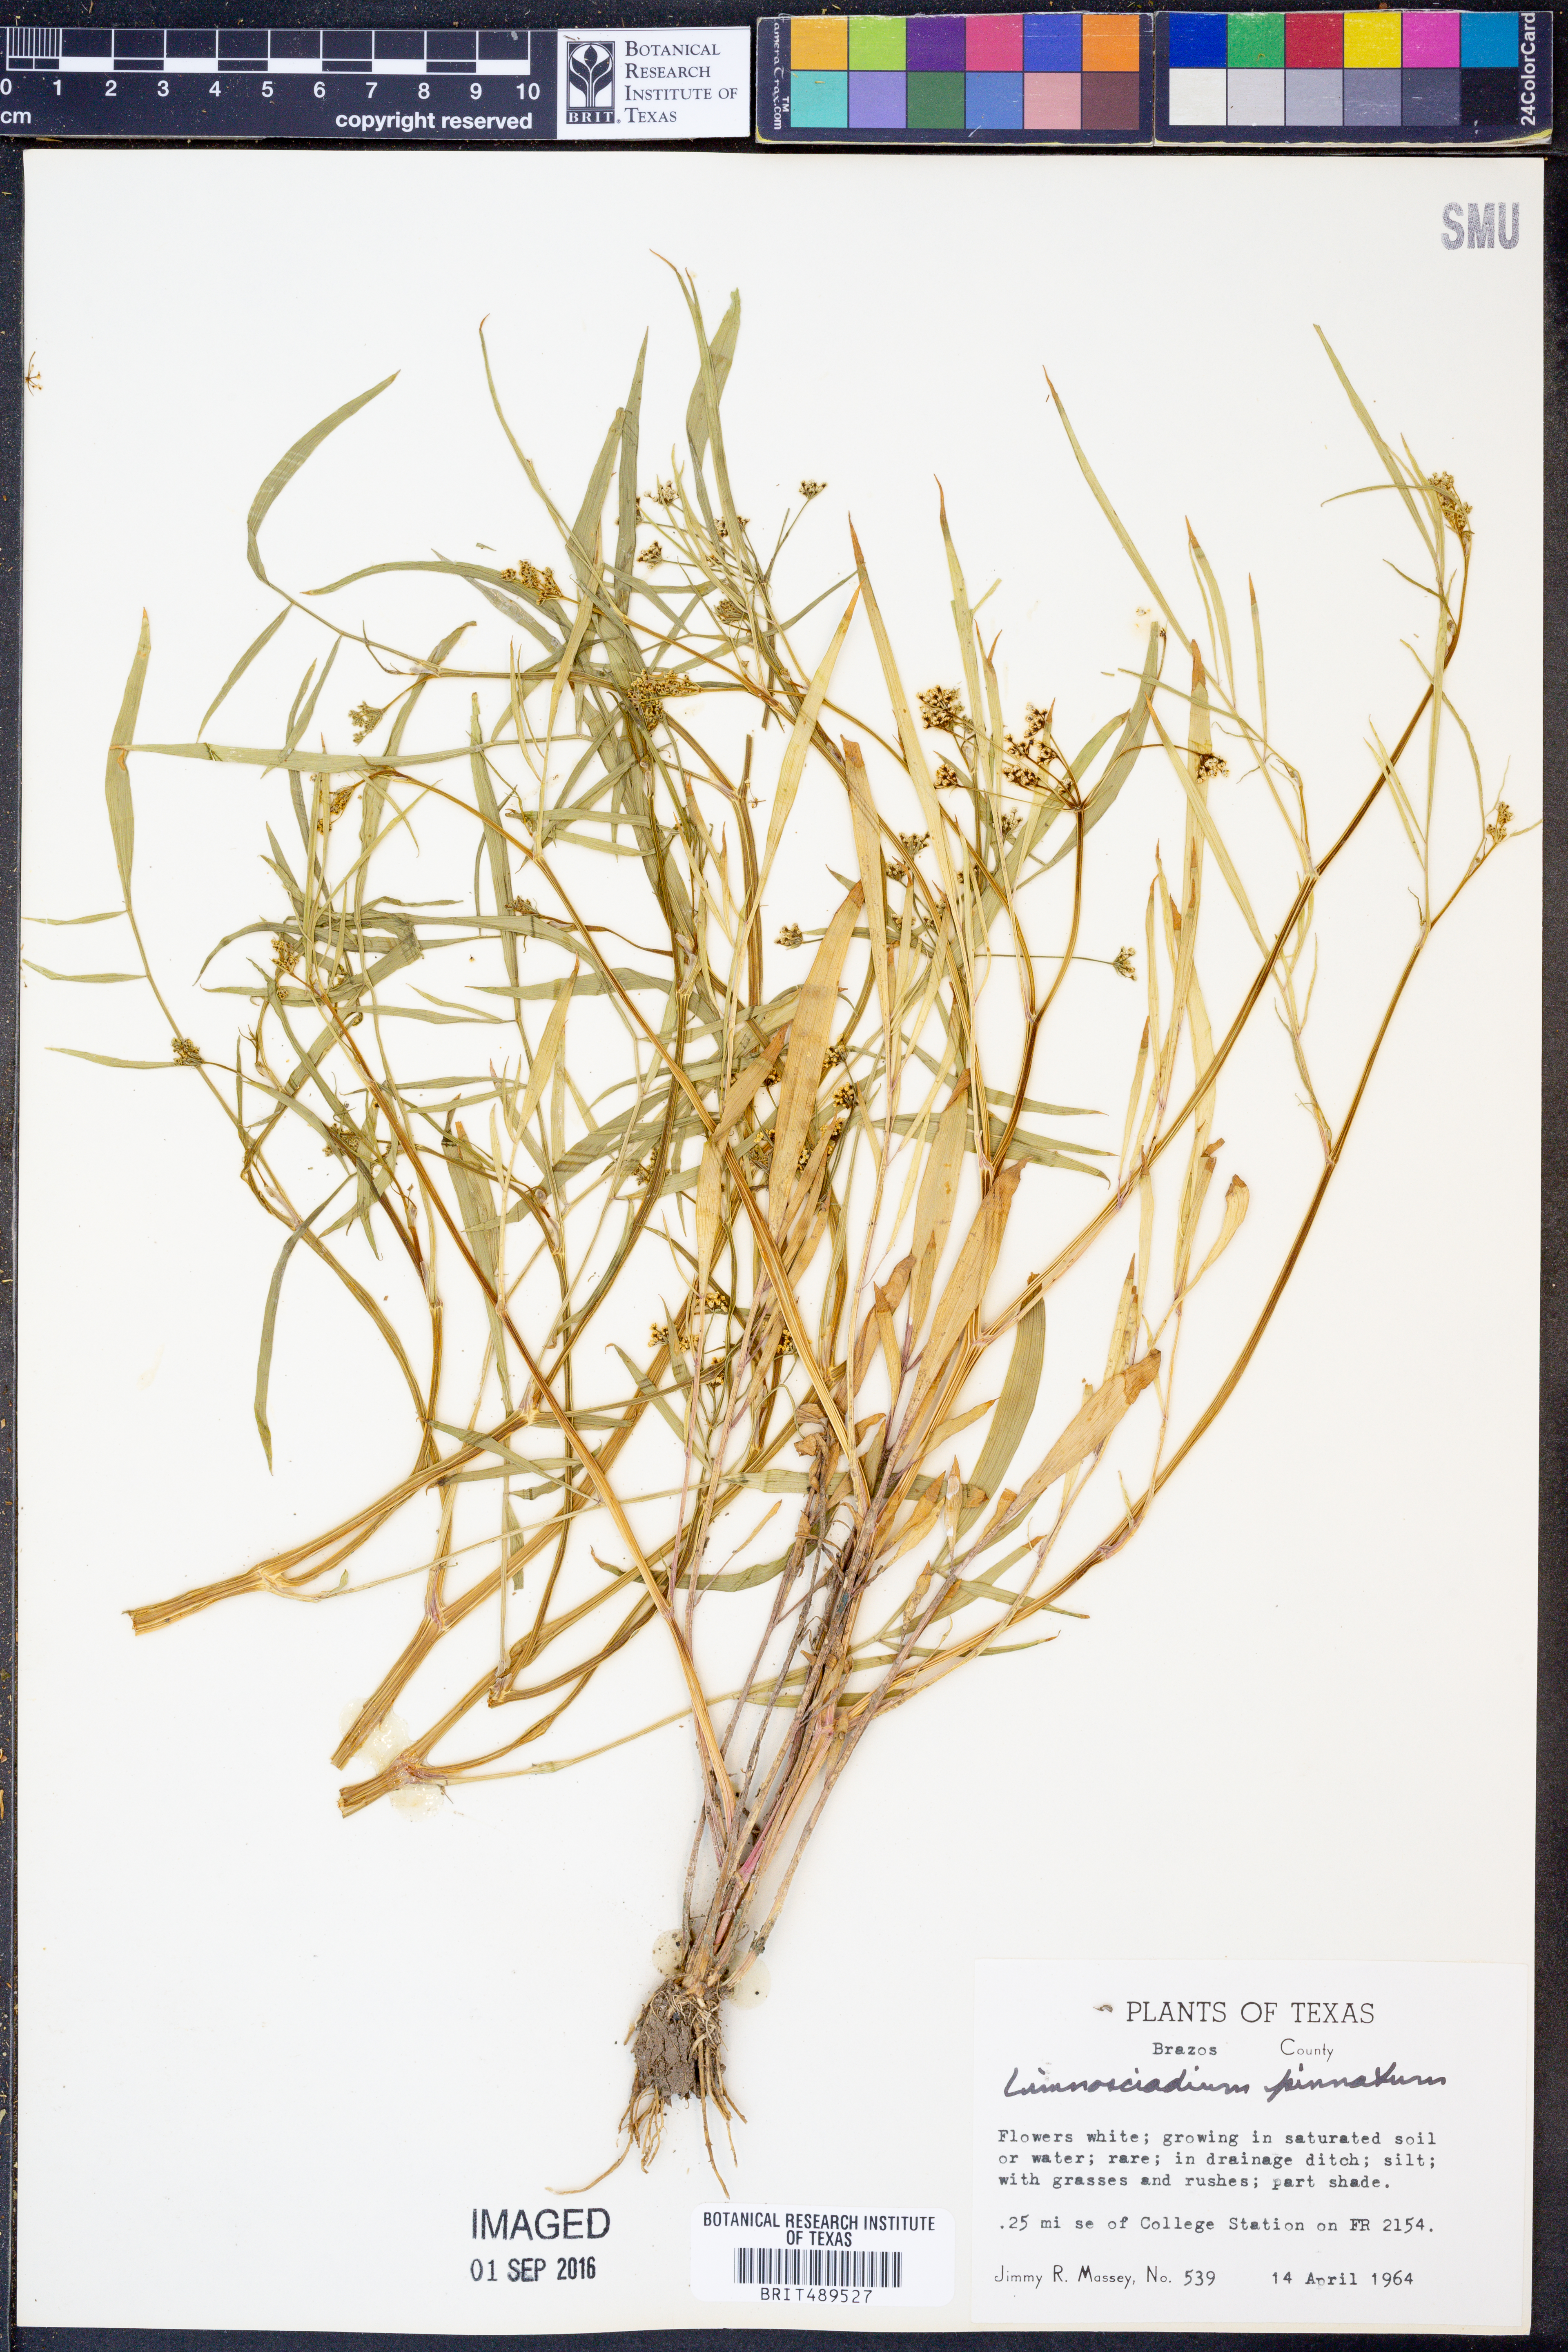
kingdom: Plantae
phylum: Tracheophyta
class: Magnoliopsida
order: Apiales
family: Apiaceae
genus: Limnosciadium
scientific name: Limnosciadium pinnatum
